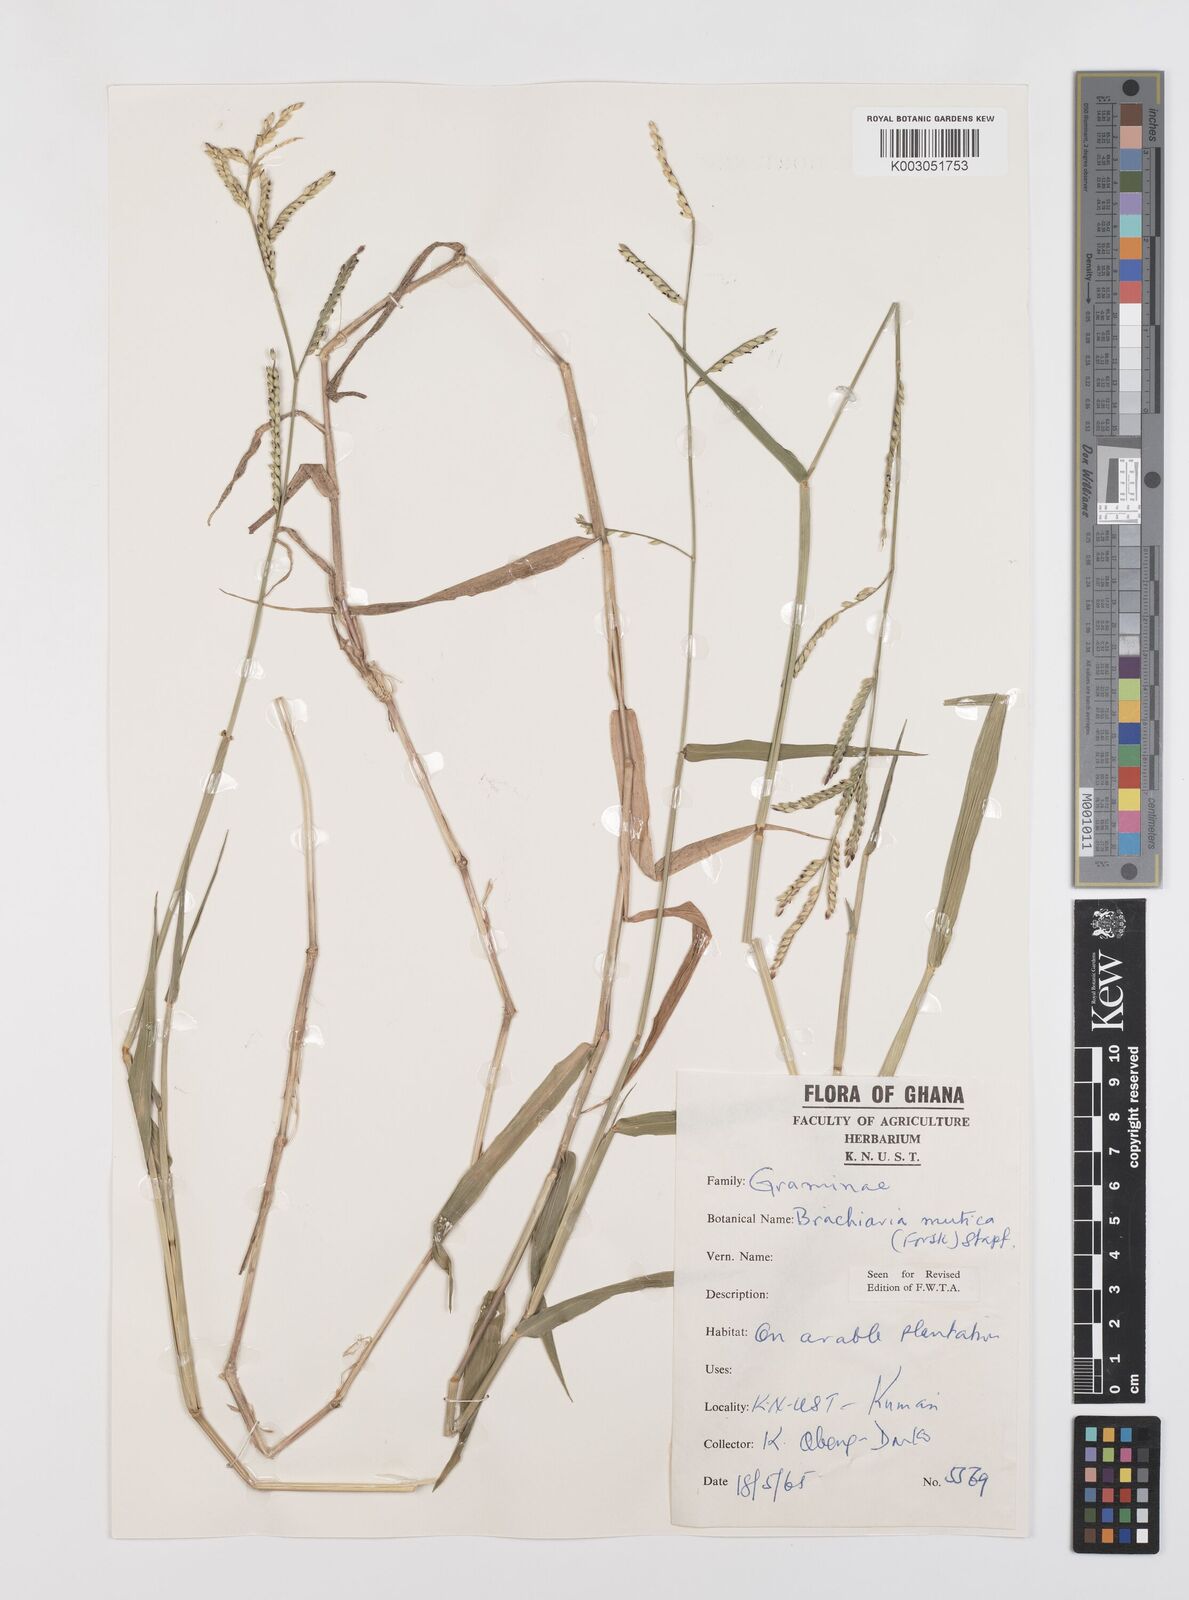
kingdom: Plantae
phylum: Tracheophyta
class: Liliopsida
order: Poales
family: Poaceae
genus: Urochloa
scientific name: Urochloa arrecta
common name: African signalgrass
